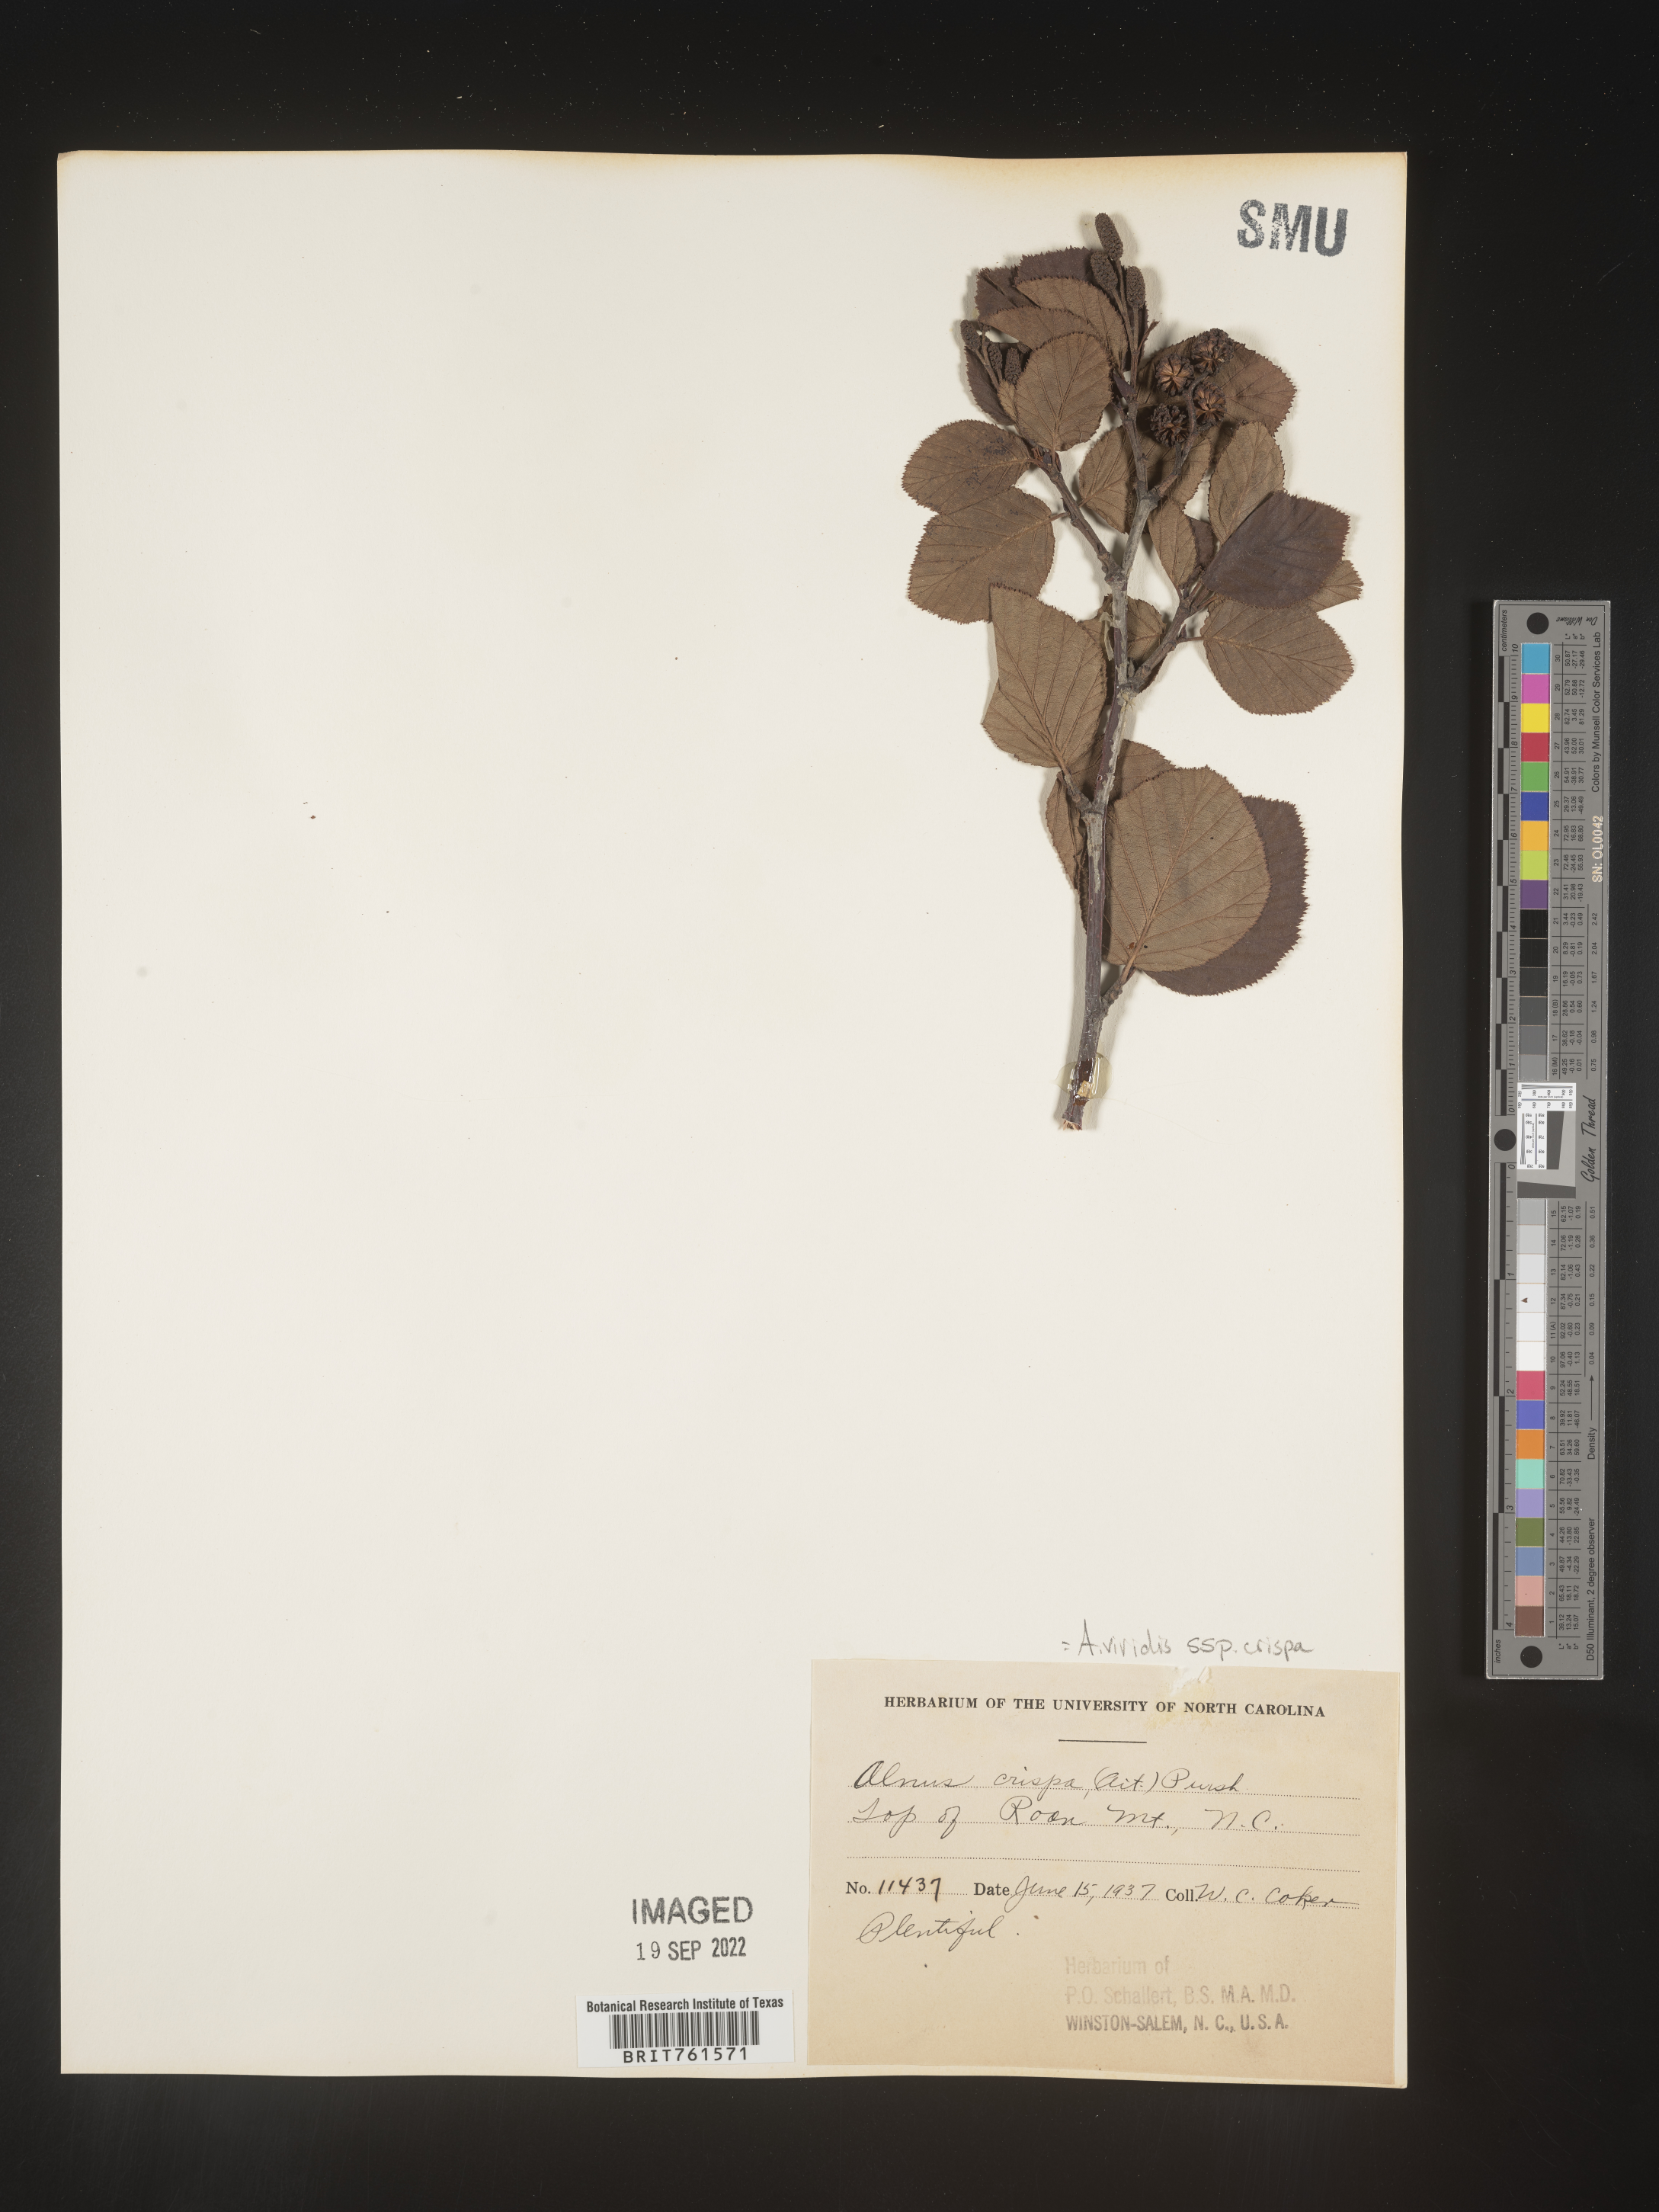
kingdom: Plantae
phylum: Tracheophyta
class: Magnoliopsida
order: Fagales
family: Betulaceae
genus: Alnus
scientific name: Alnus alnobetula
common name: Green alder
